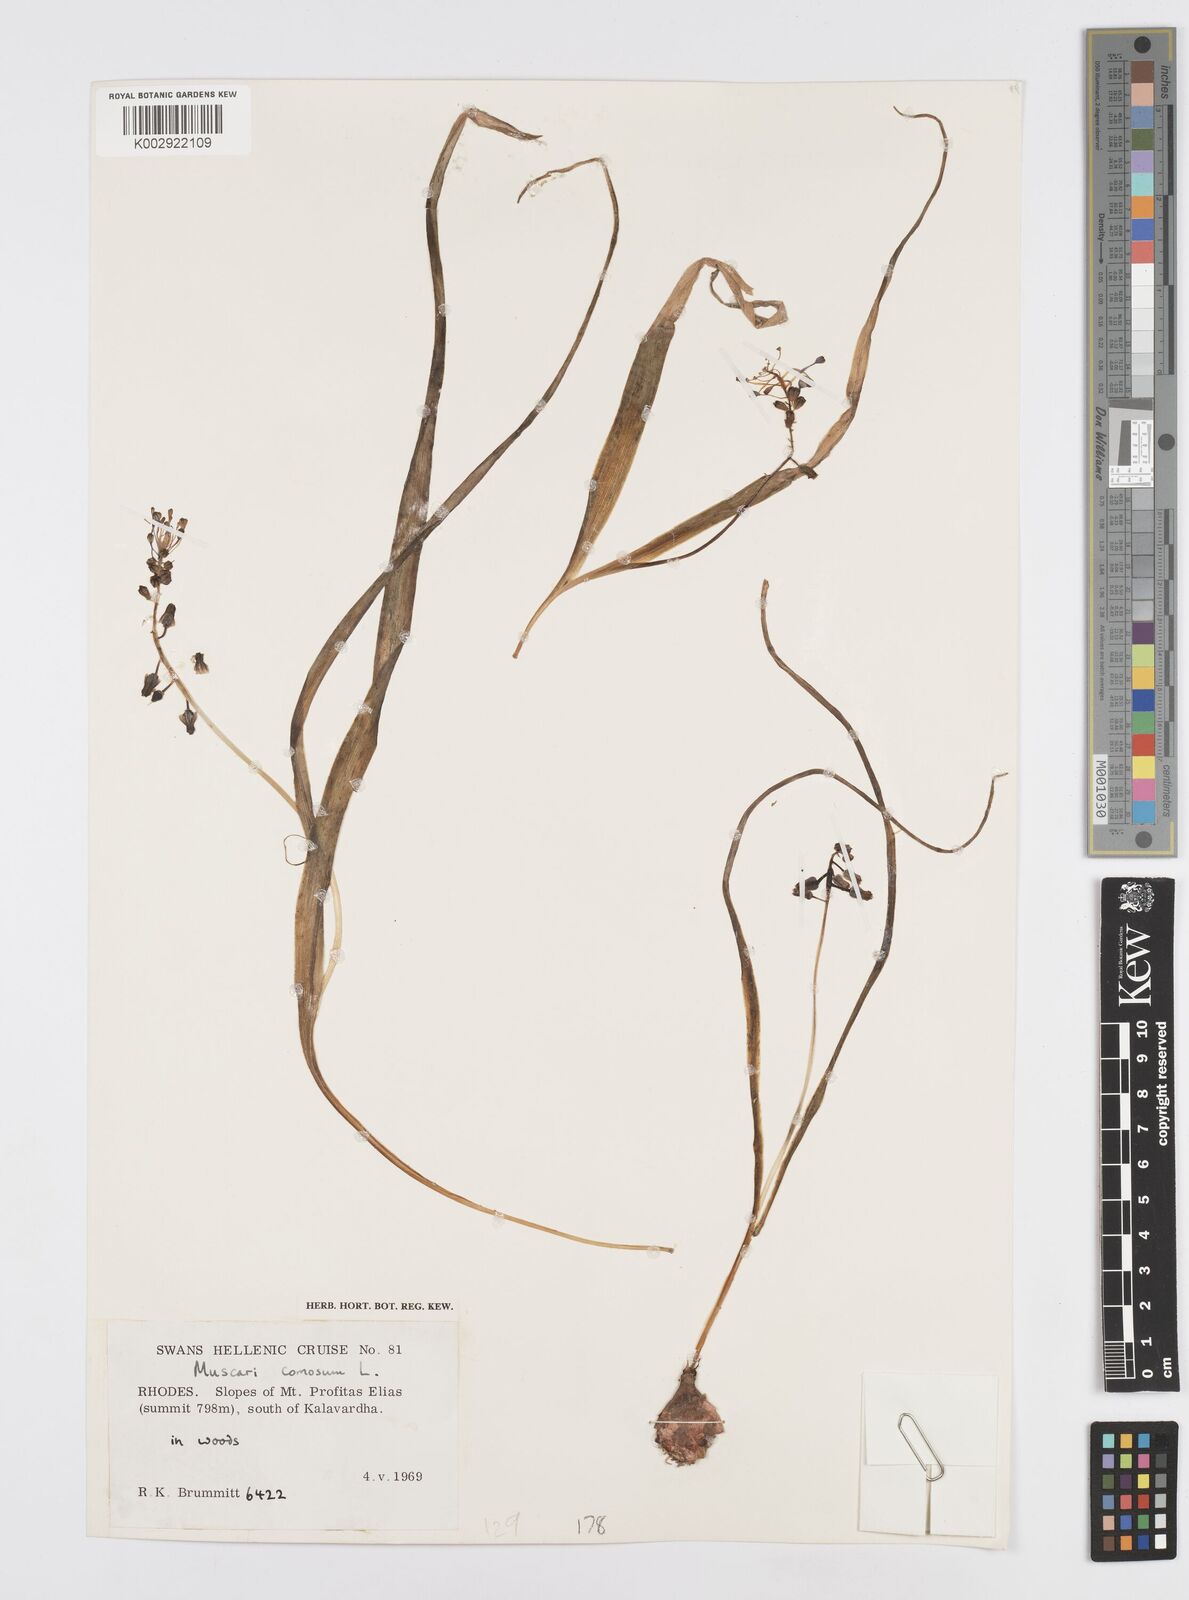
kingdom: Plantae
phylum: Tracheophyta
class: Liliopsida
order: Asparagales
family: Asparagaceae
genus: Muscari
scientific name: Muscari comosum
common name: Tassel hyacinth
